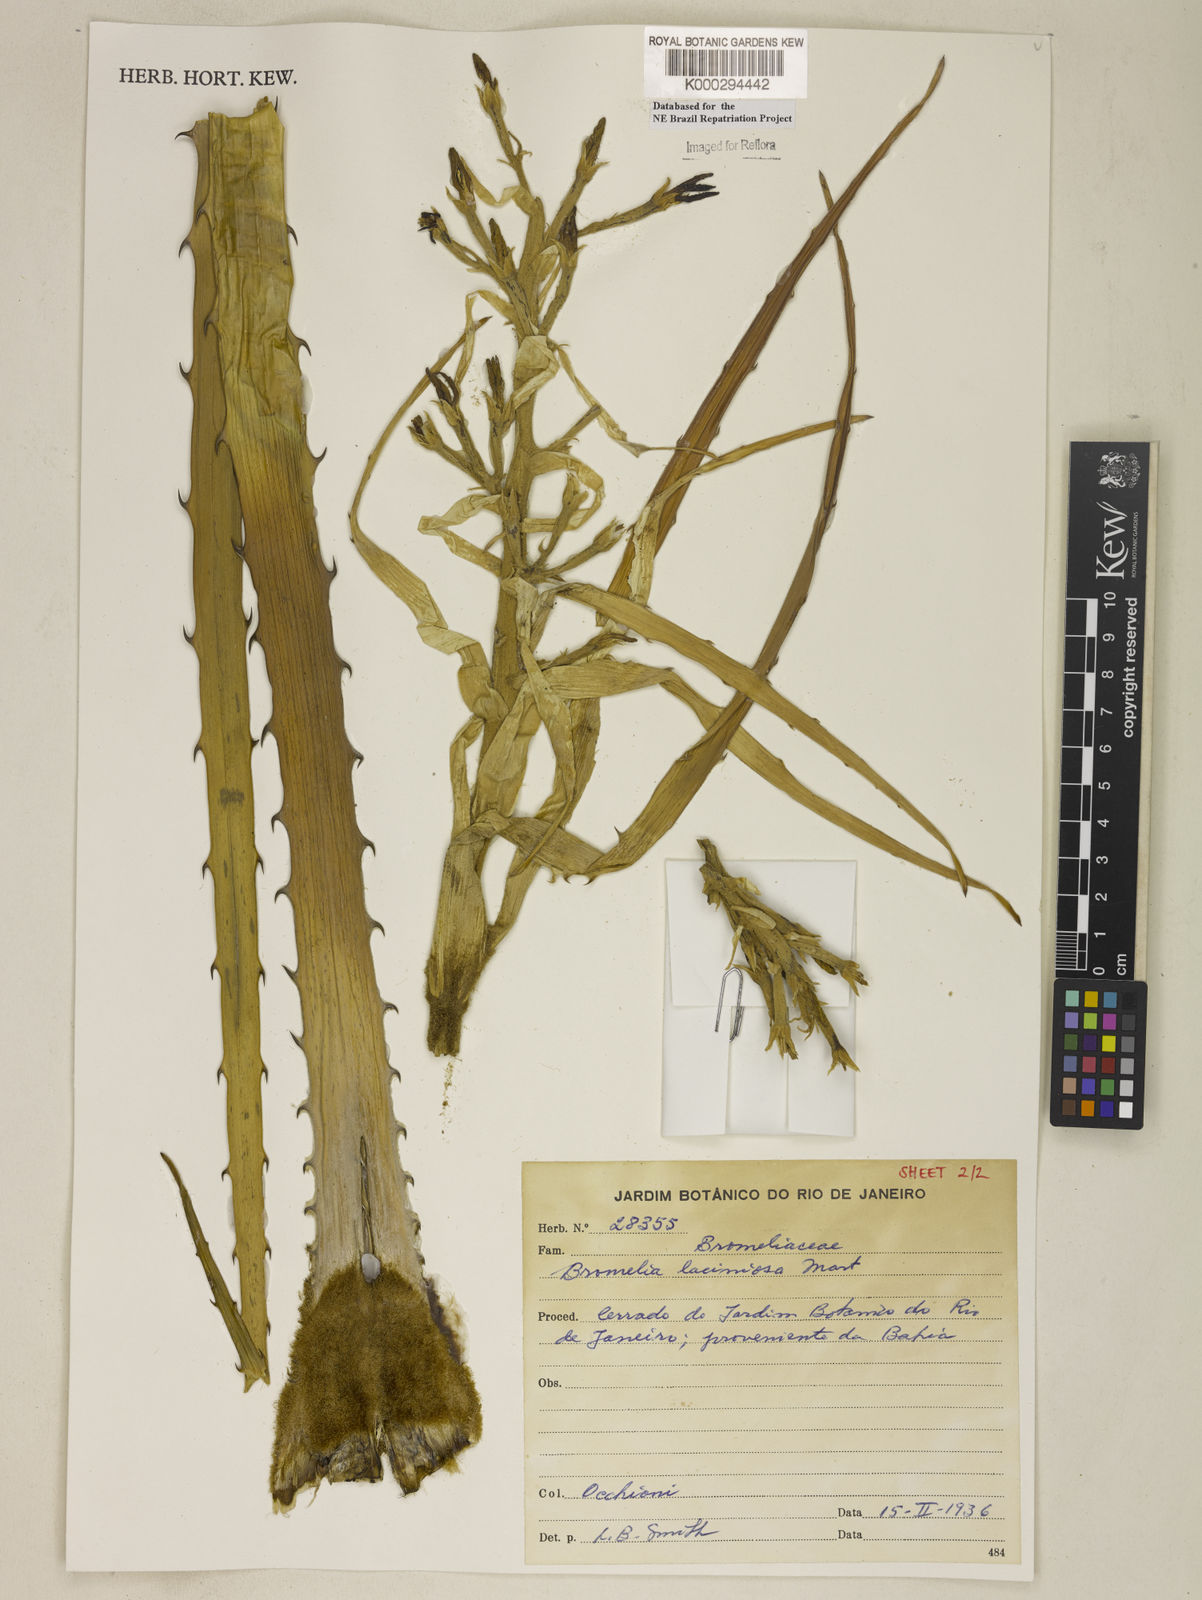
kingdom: Plantae
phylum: Tracheophyta
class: Liliopsida
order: Poales
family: Bromeliaceae
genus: Bromelia
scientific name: Bromelia laciniosa
